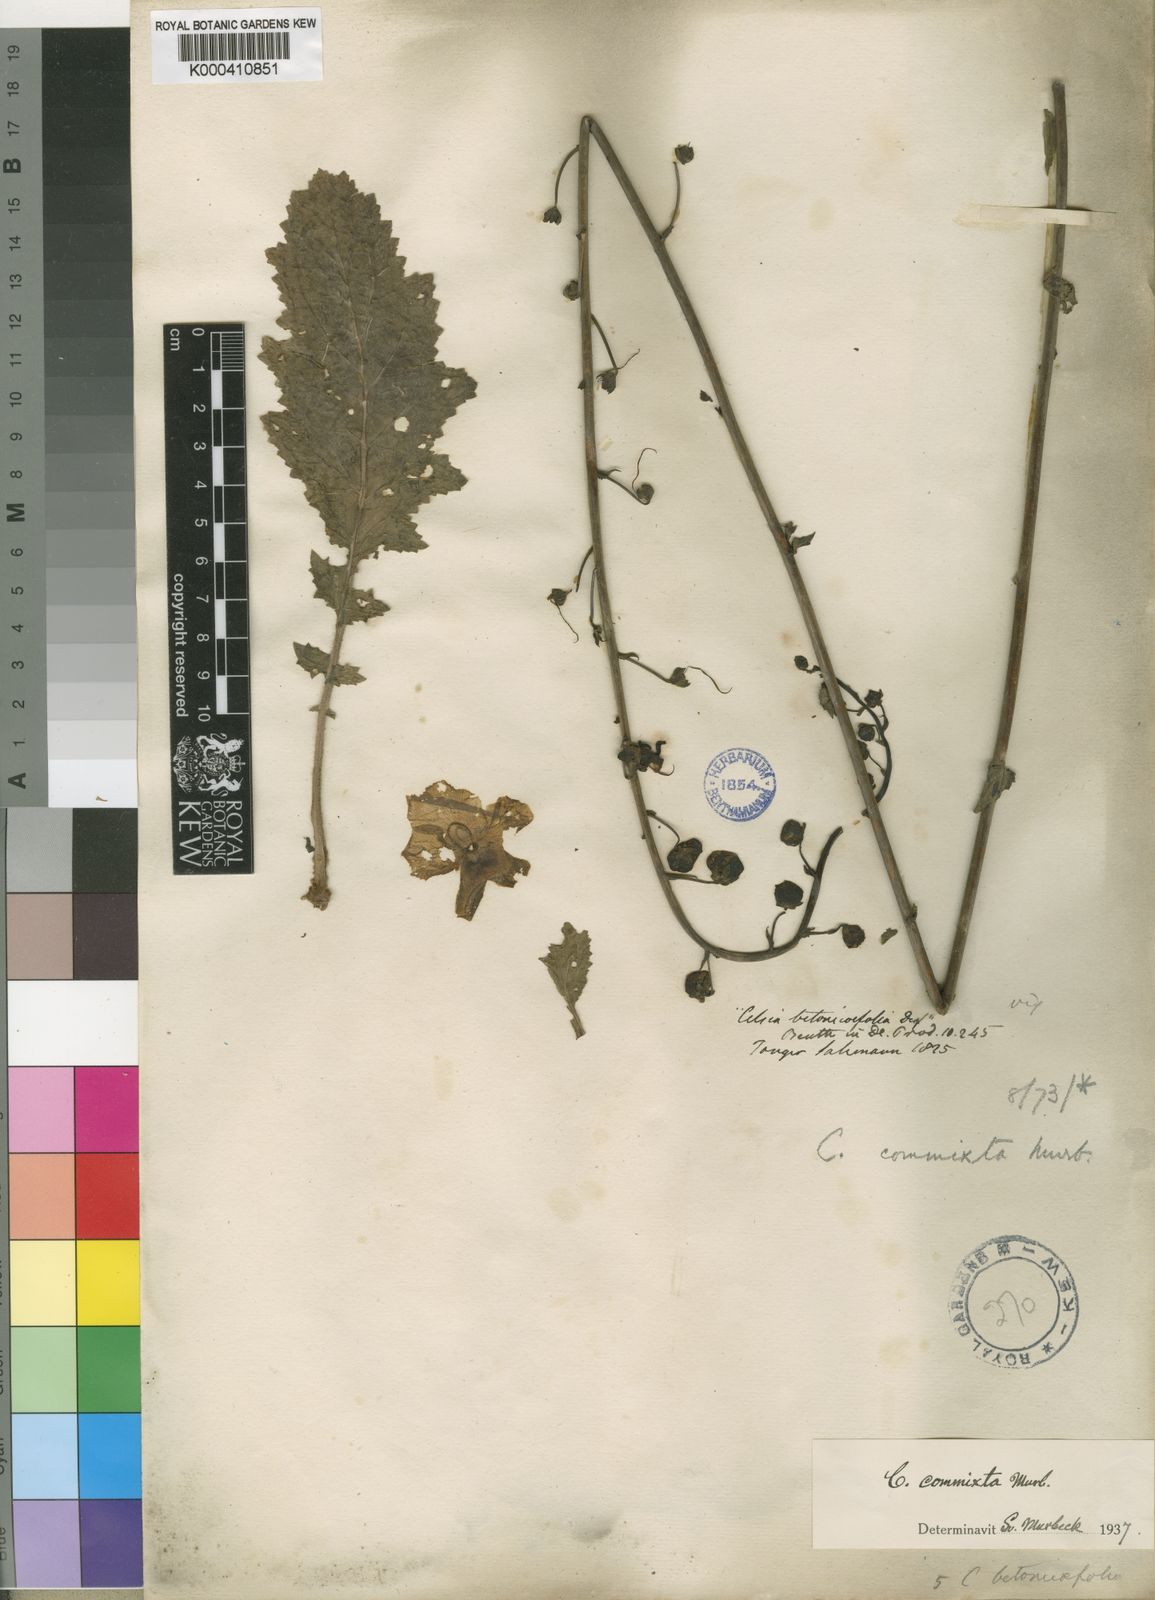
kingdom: Plantae
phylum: Tracheophyta
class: Magnoliopsida
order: Lamiales
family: Scrophulariaceae
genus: Verbascum
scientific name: Verbascum faurei
